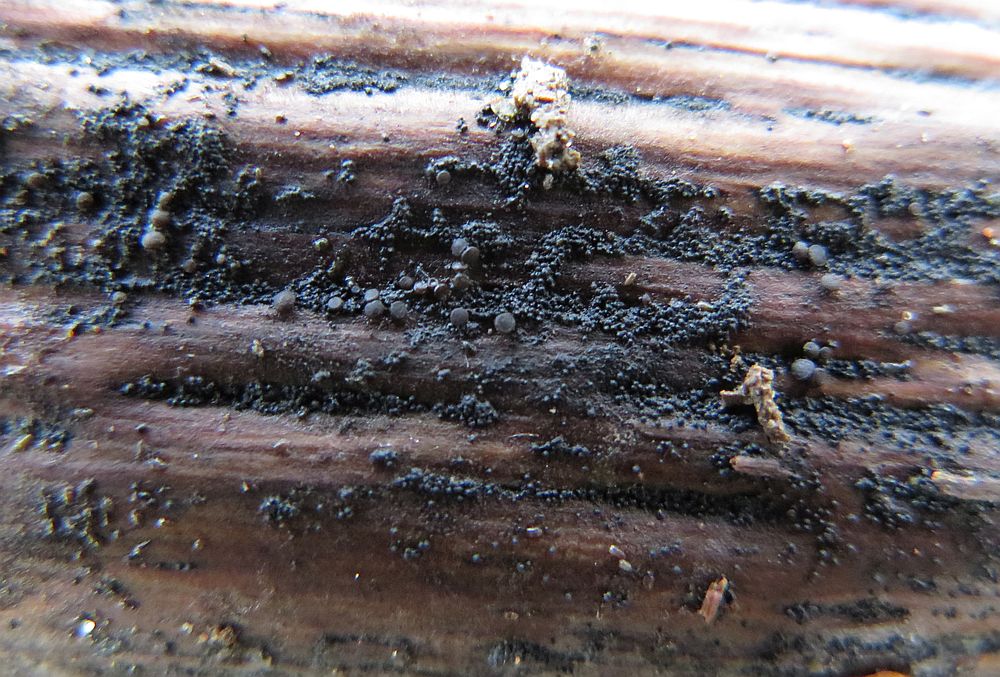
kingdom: Fungi
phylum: Ascomycota
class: Lecanoromycetes
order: Lecanorales
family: Dactylosporaceae
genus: Dactylospora
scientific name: Dactylospora
